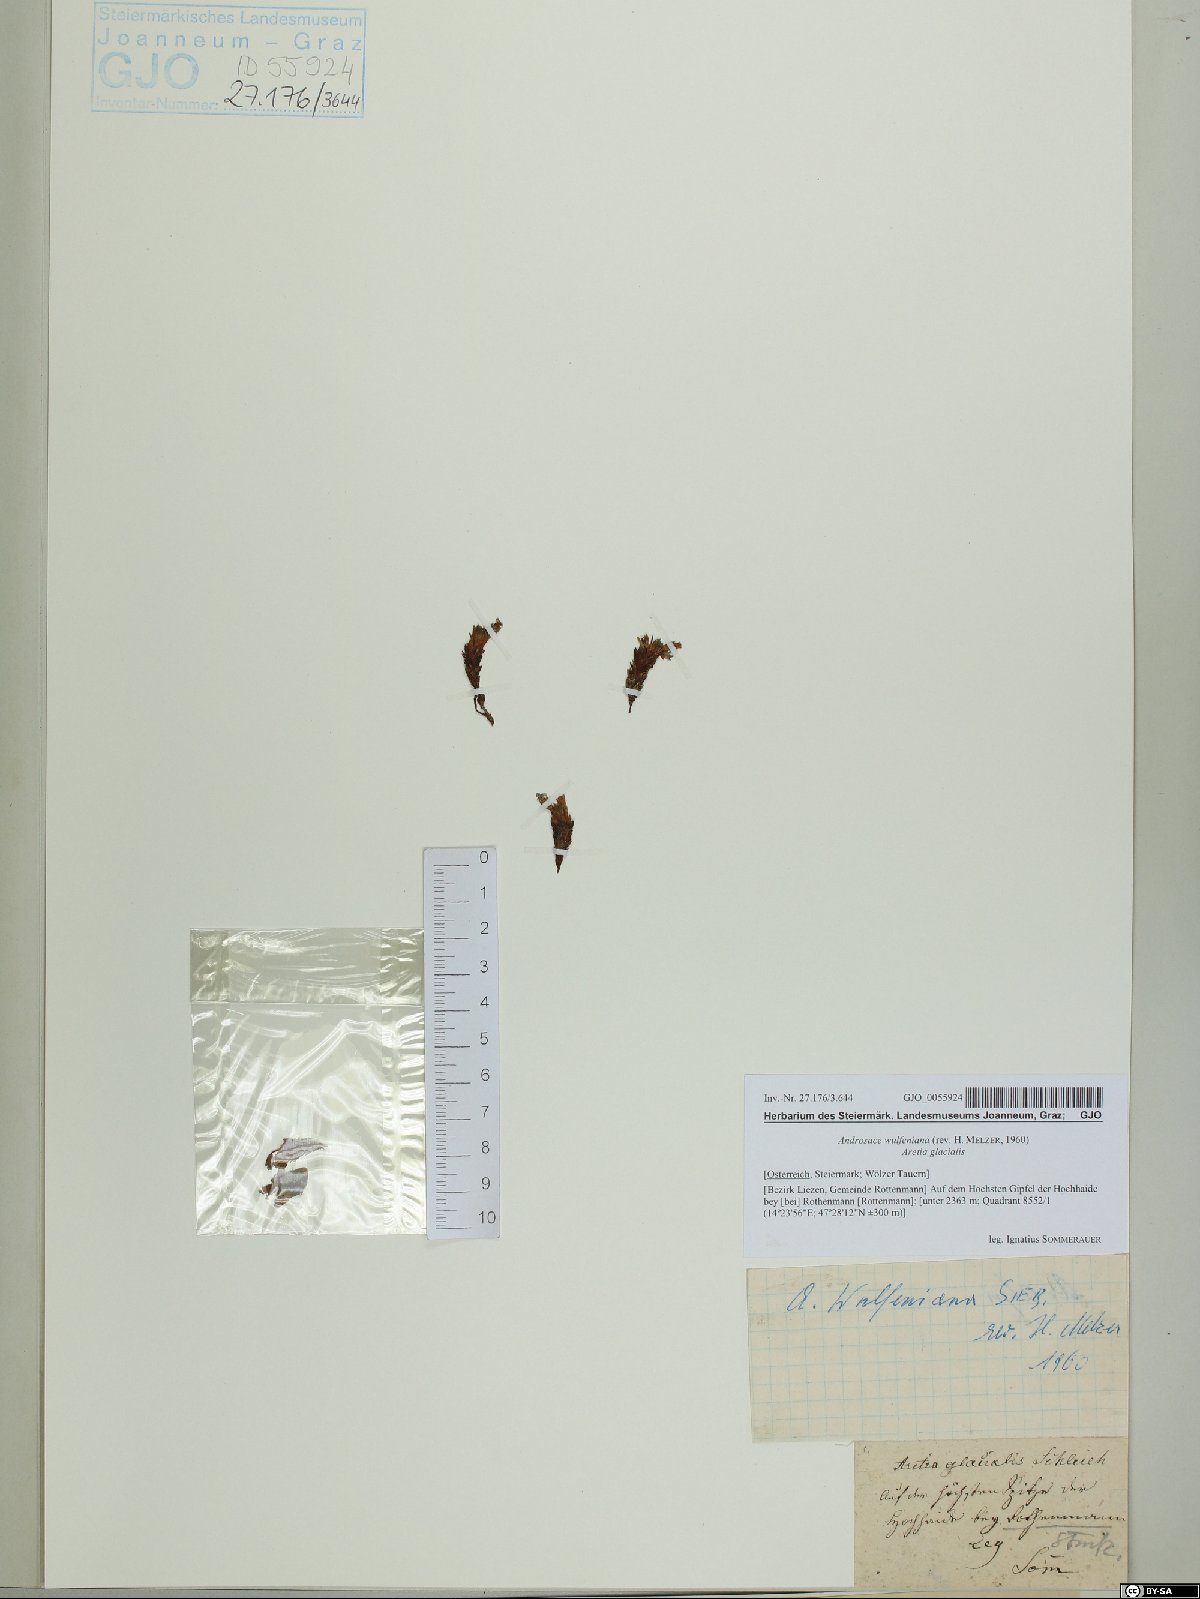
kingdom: Plantae
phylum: Tracheophyta
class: Magnoliopsida
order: Ericales
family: Primulaceae
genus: Androsace
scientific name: Androsace wulfeniana
